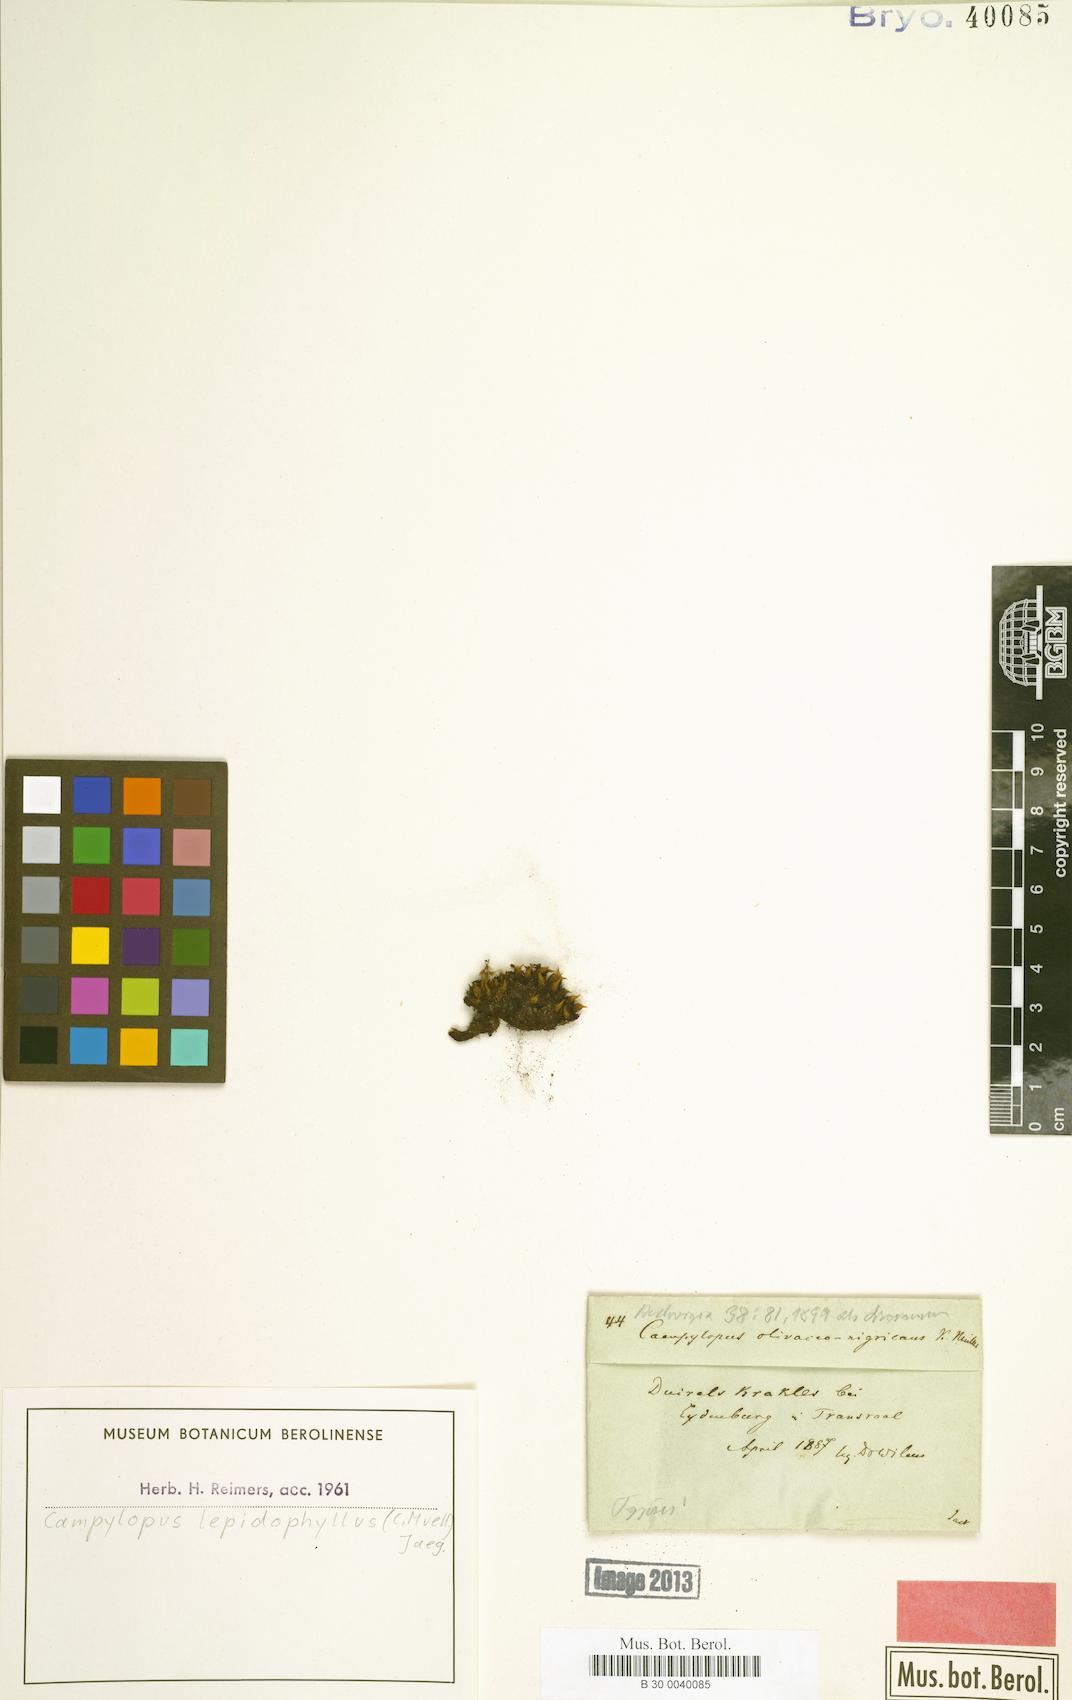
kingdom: Plantae
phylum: Bryophyta
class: Bryopsida
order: Dicranales
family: Leucobryaceae
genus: Campylopus
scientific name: Campylopus introflexus
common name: Heath star moss
